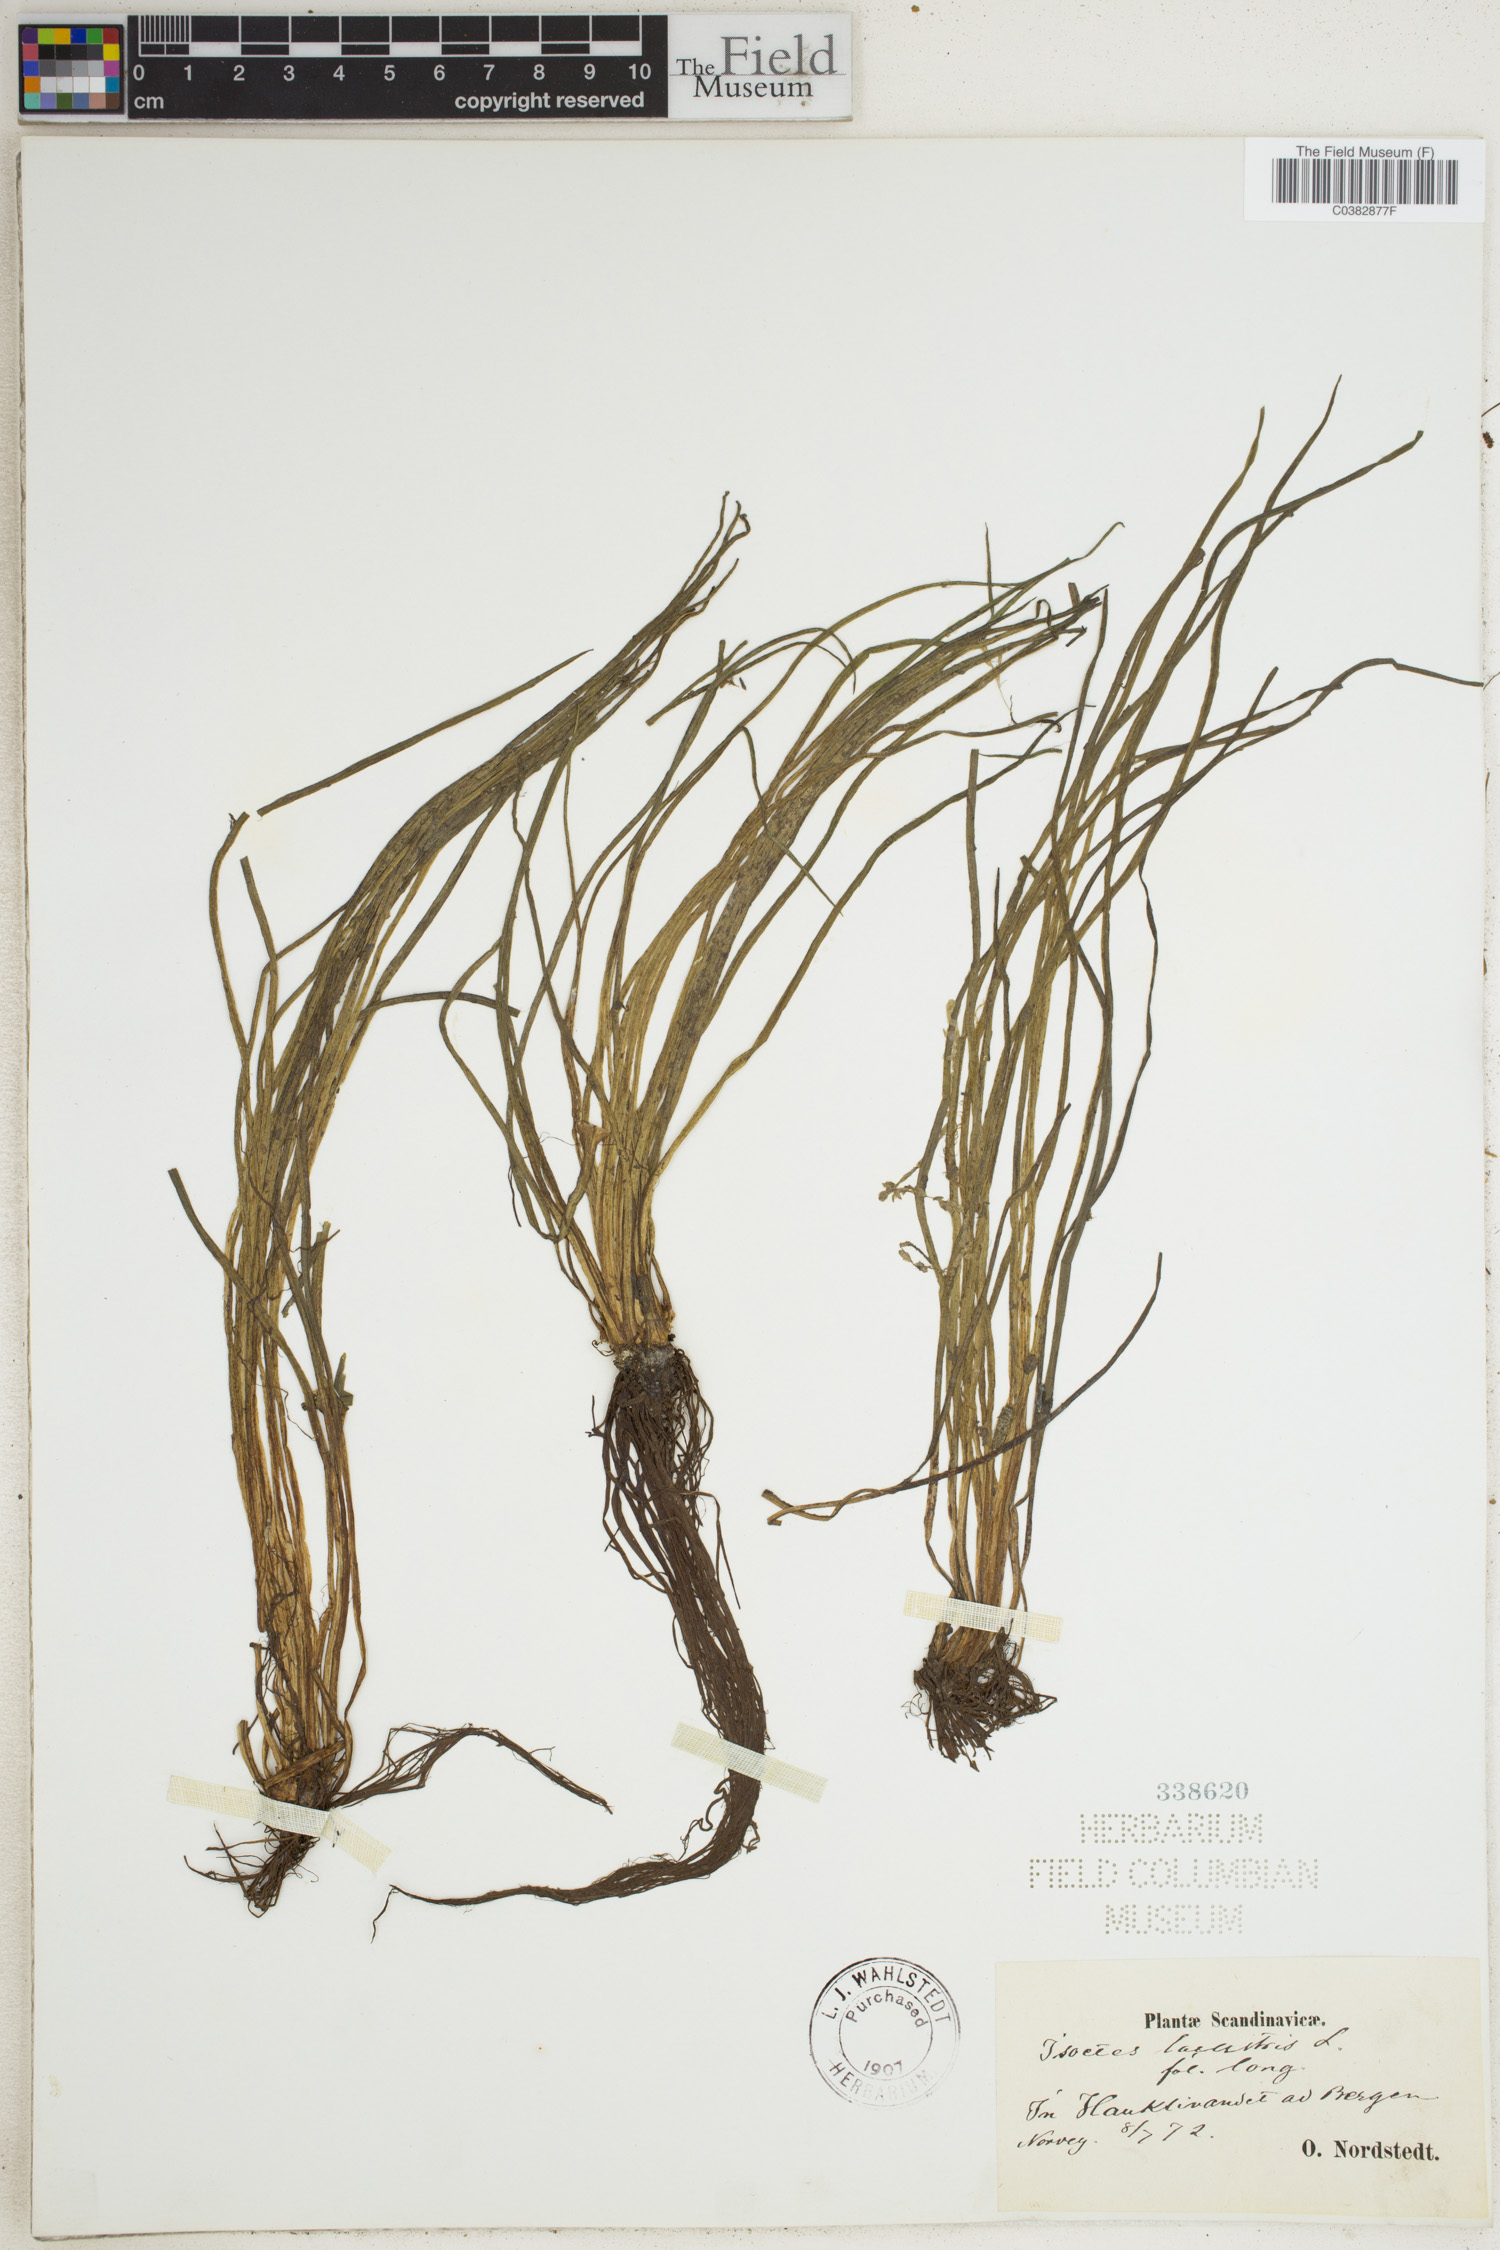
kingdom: Plantae
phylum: Tracheophyta
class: Lycopodiopsida
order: Isoetales
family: Isoetaceae
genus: Isoetes
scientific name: Isoetes lacustris
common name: Common quillwort
